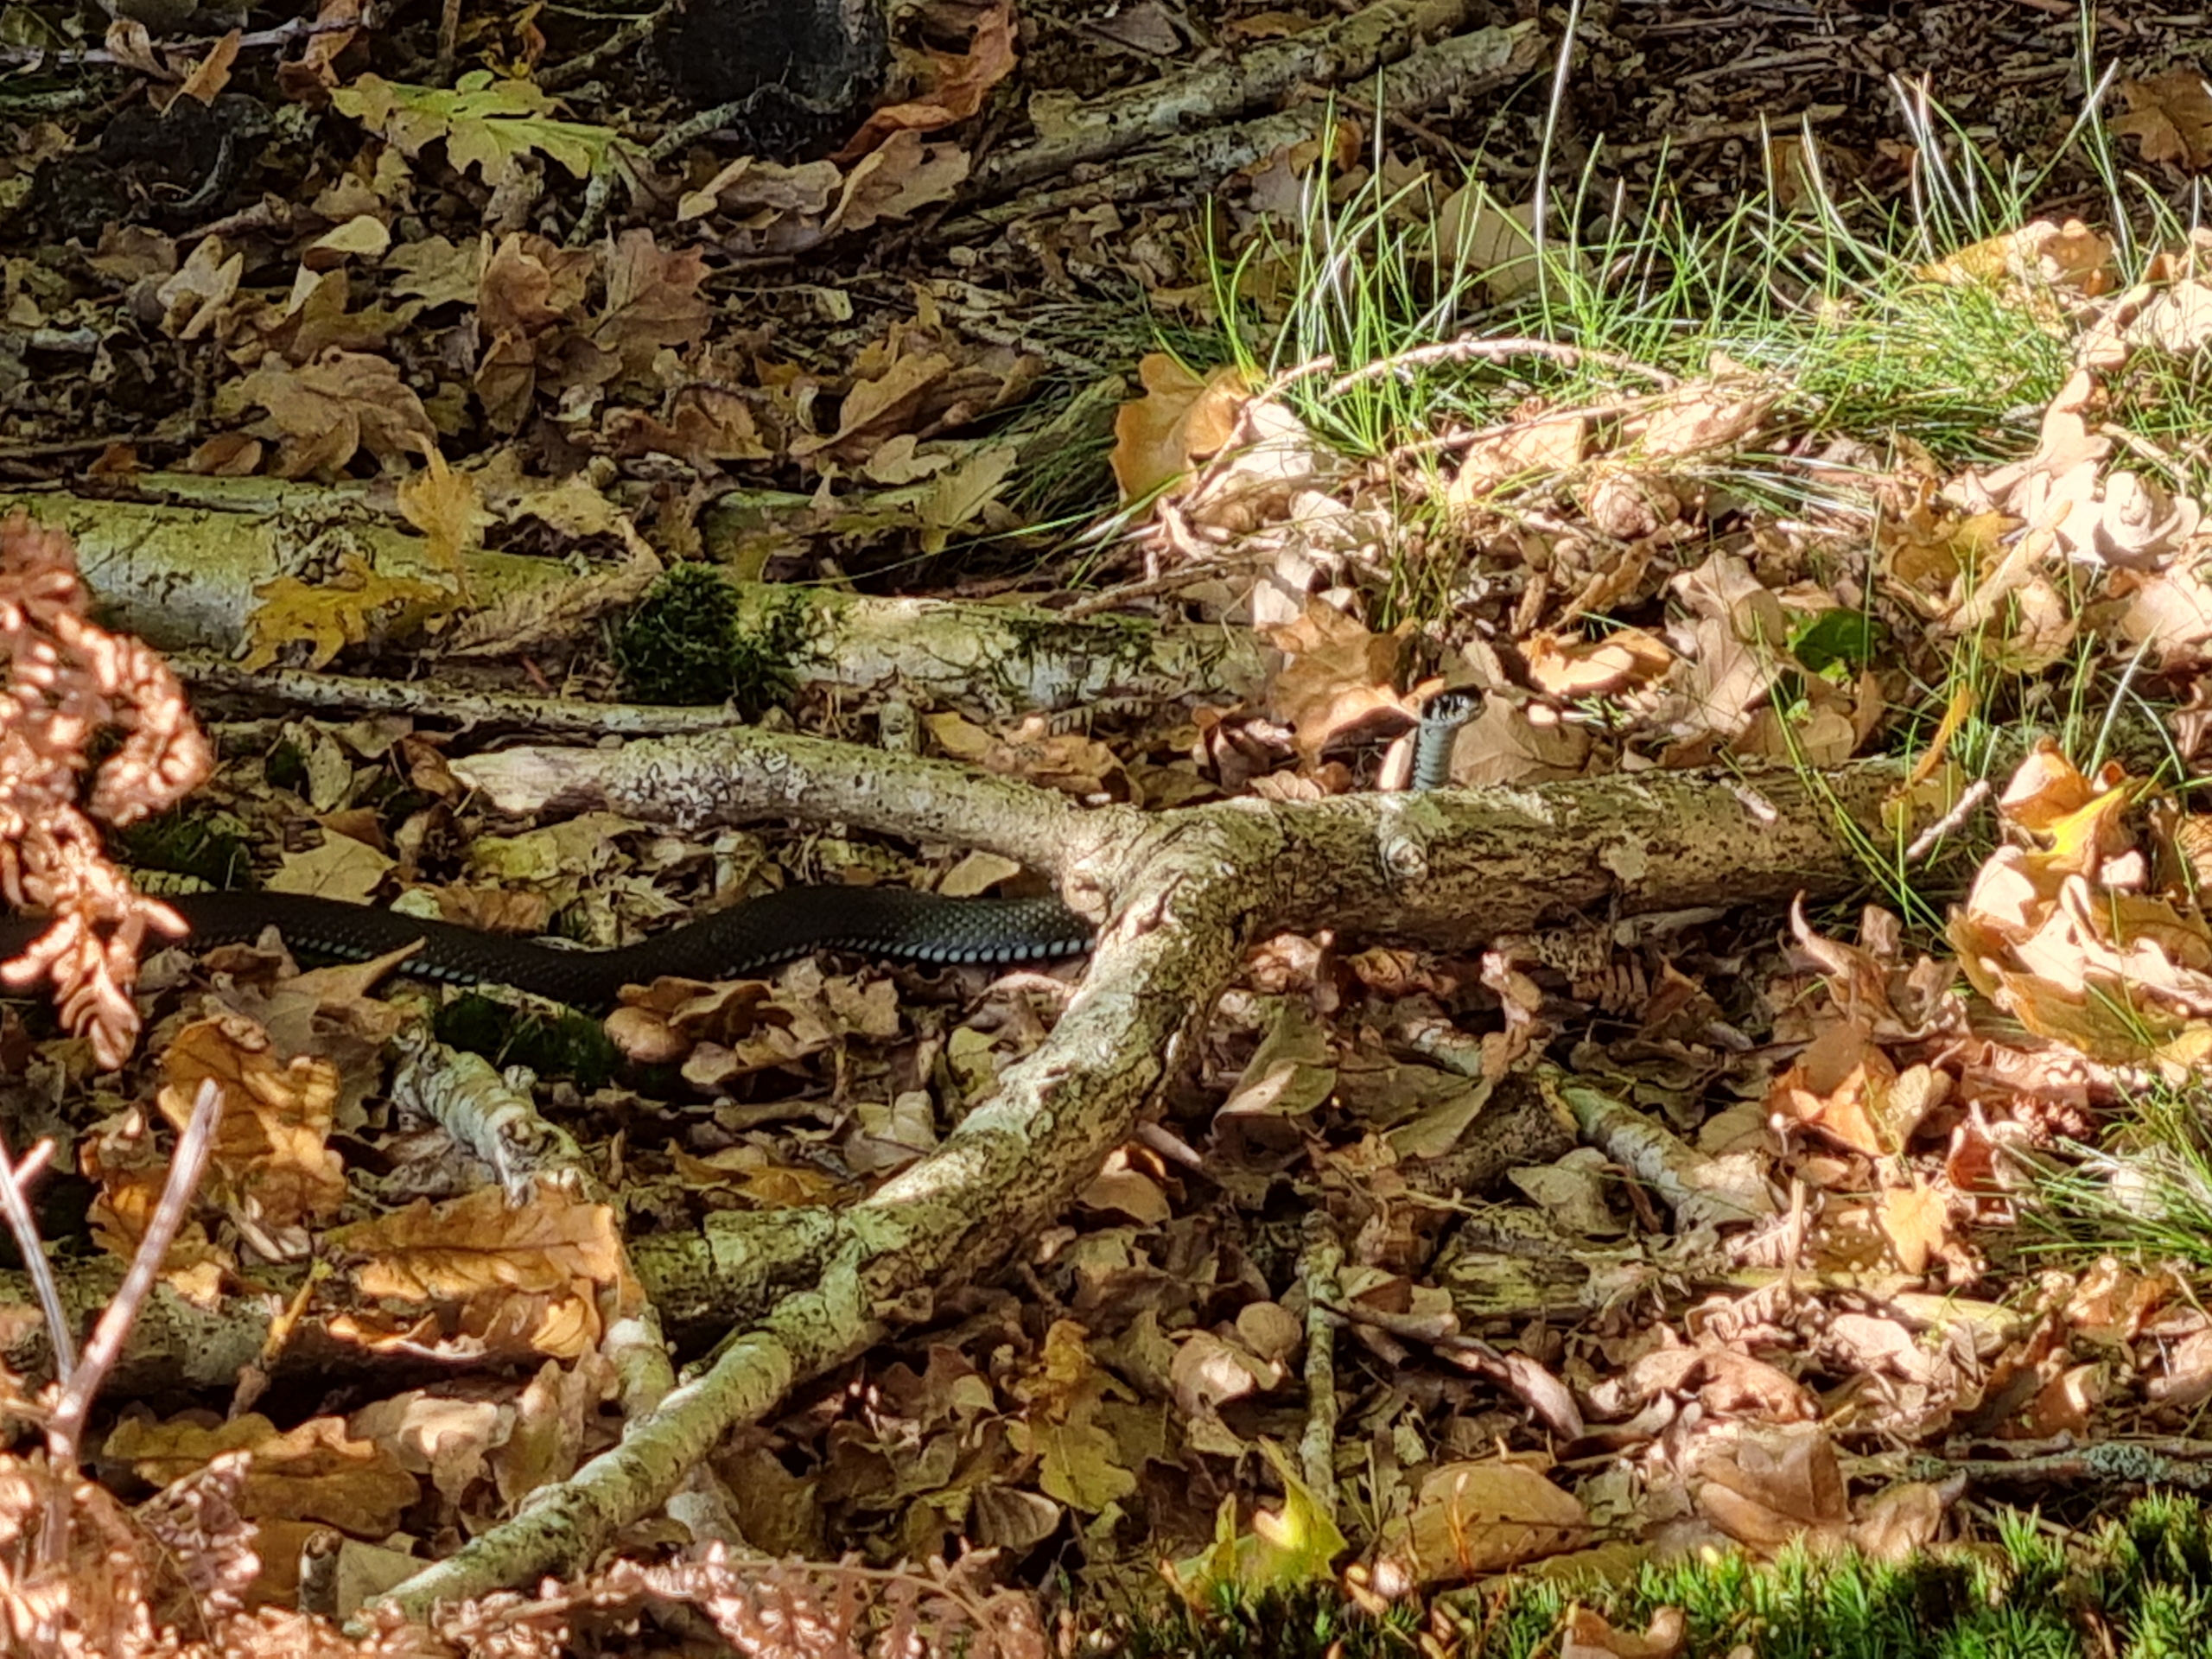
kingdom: Animalia
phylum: Chordata
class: Squamata
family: Colubridae
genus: Natrix
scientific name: Natrix natrix
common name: Snog
